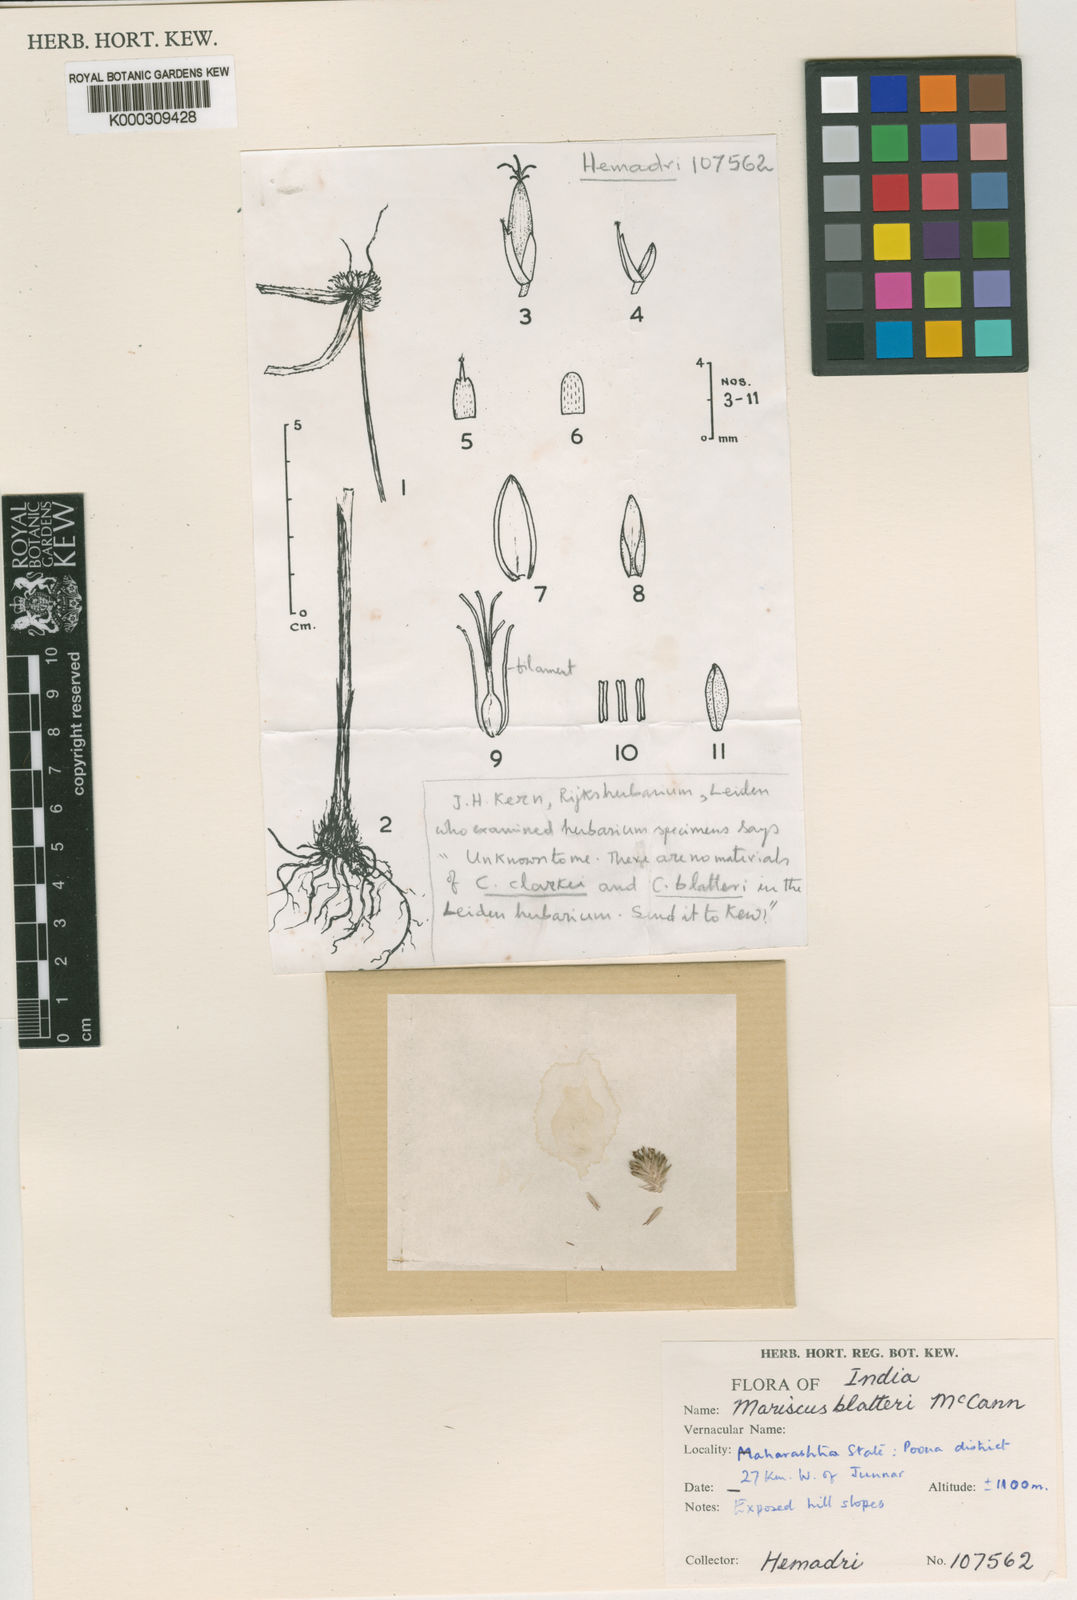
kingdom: Plantae
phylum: Tracheophyta
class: Liliopsida
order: Poales
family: Cyperaceae
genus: Cyperus
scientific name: Cyperus blatteri
